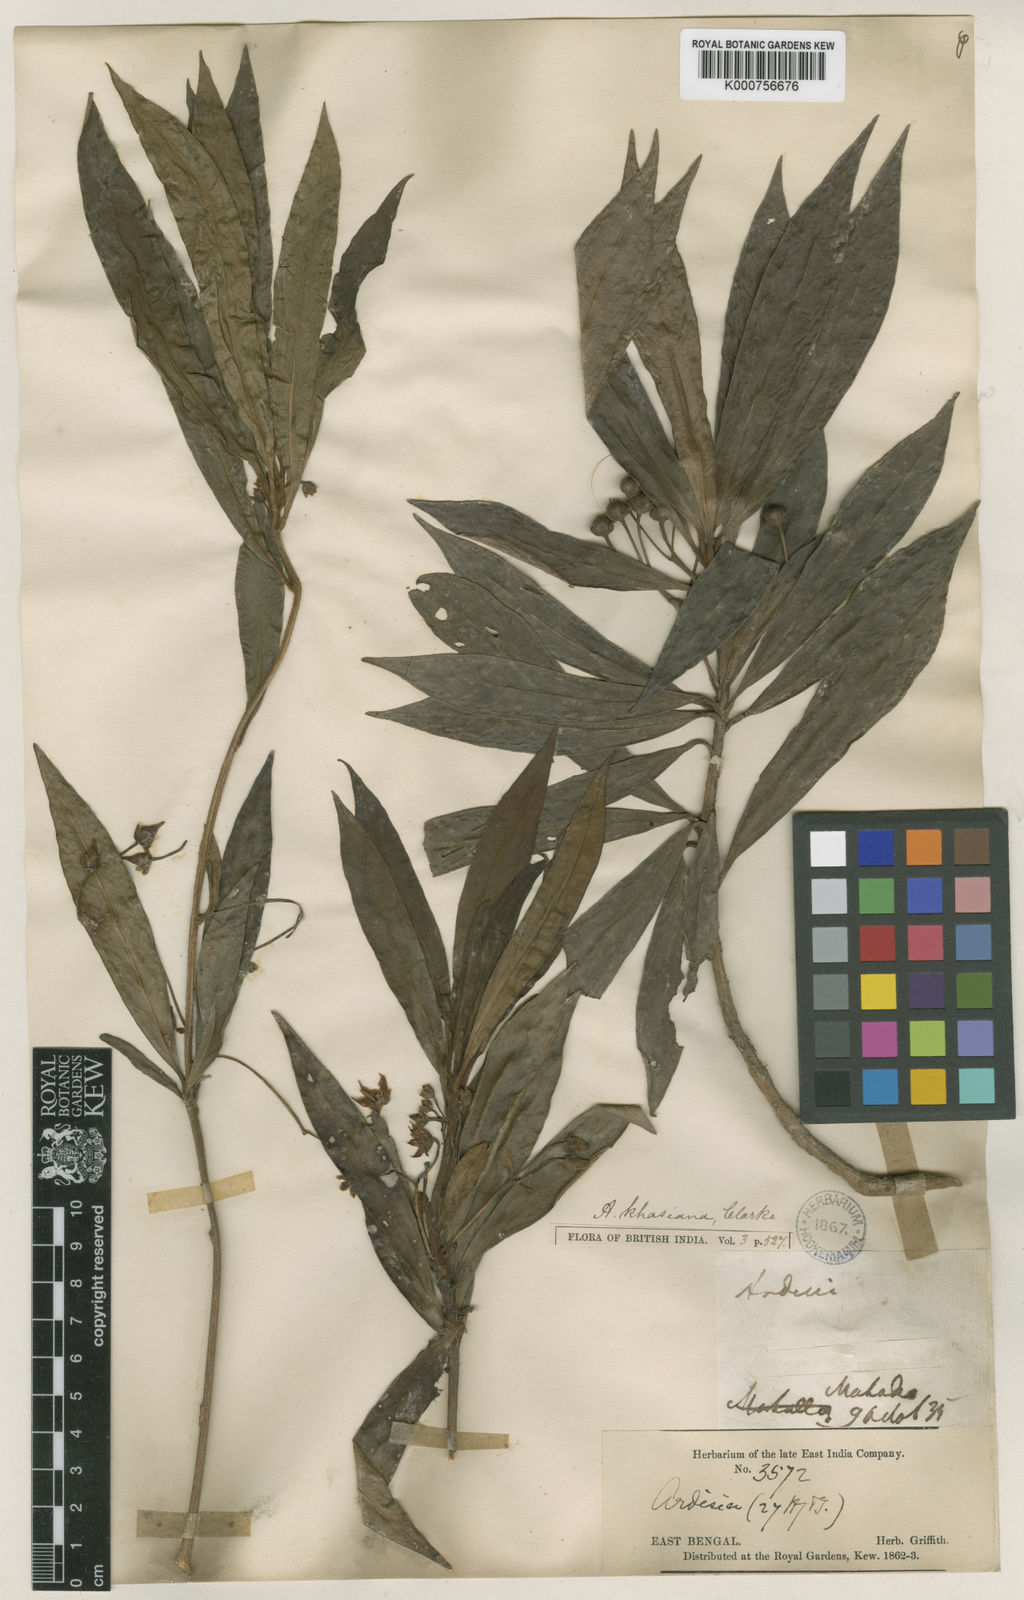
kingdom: Plantae
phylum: Tracheophyta
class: Magnoliopsida
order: Ericales
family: Primulaceae
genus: Ardisia
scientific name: Ardisia khasiana
